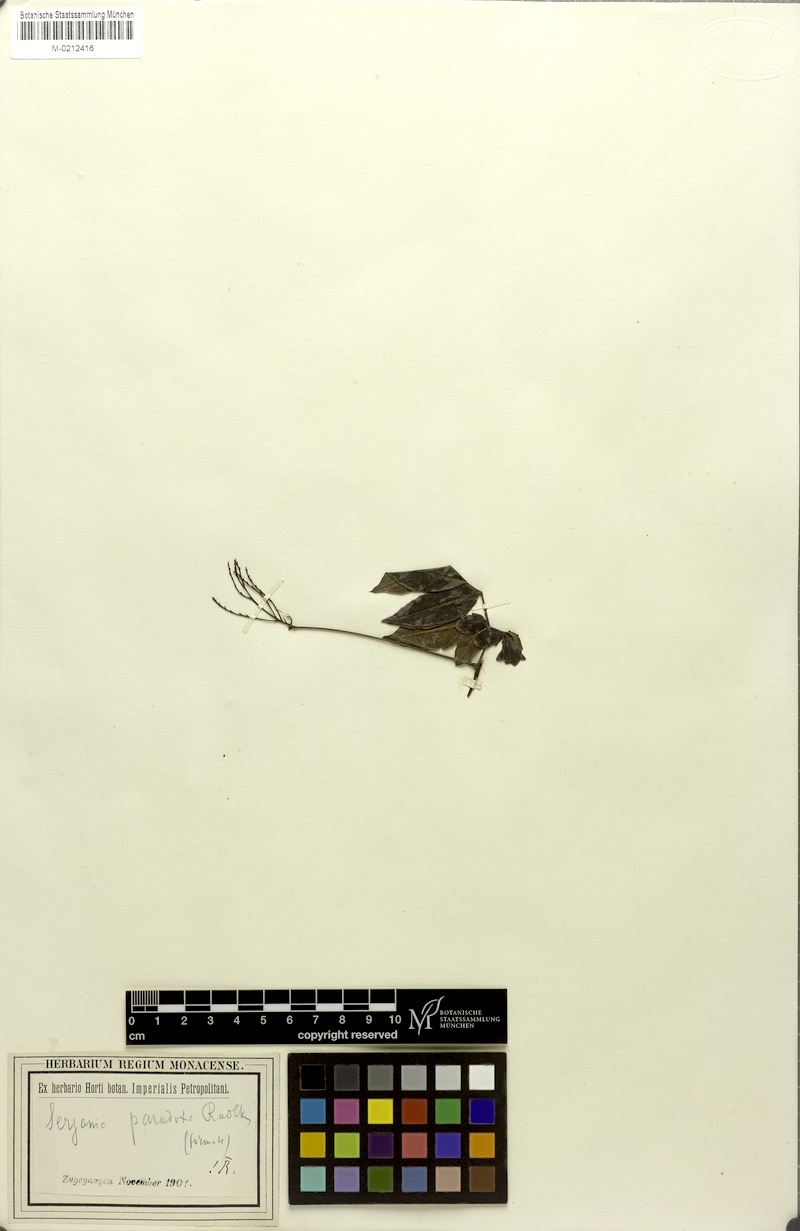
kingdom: Plantae
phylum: Tracheophyta
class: Magnoliopsida
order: Sapindales
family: Sapindaceae
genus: Serjania
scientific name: Serjania paradoxa
